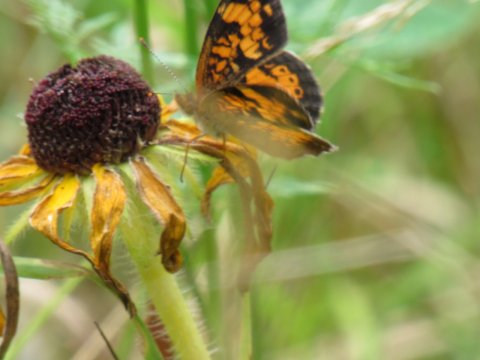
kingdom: Animalia
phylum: Arthropoda
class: Insecta
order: Lepidoptera
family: Nymphalidae
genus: Phyciodes
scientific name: Phyciodes
